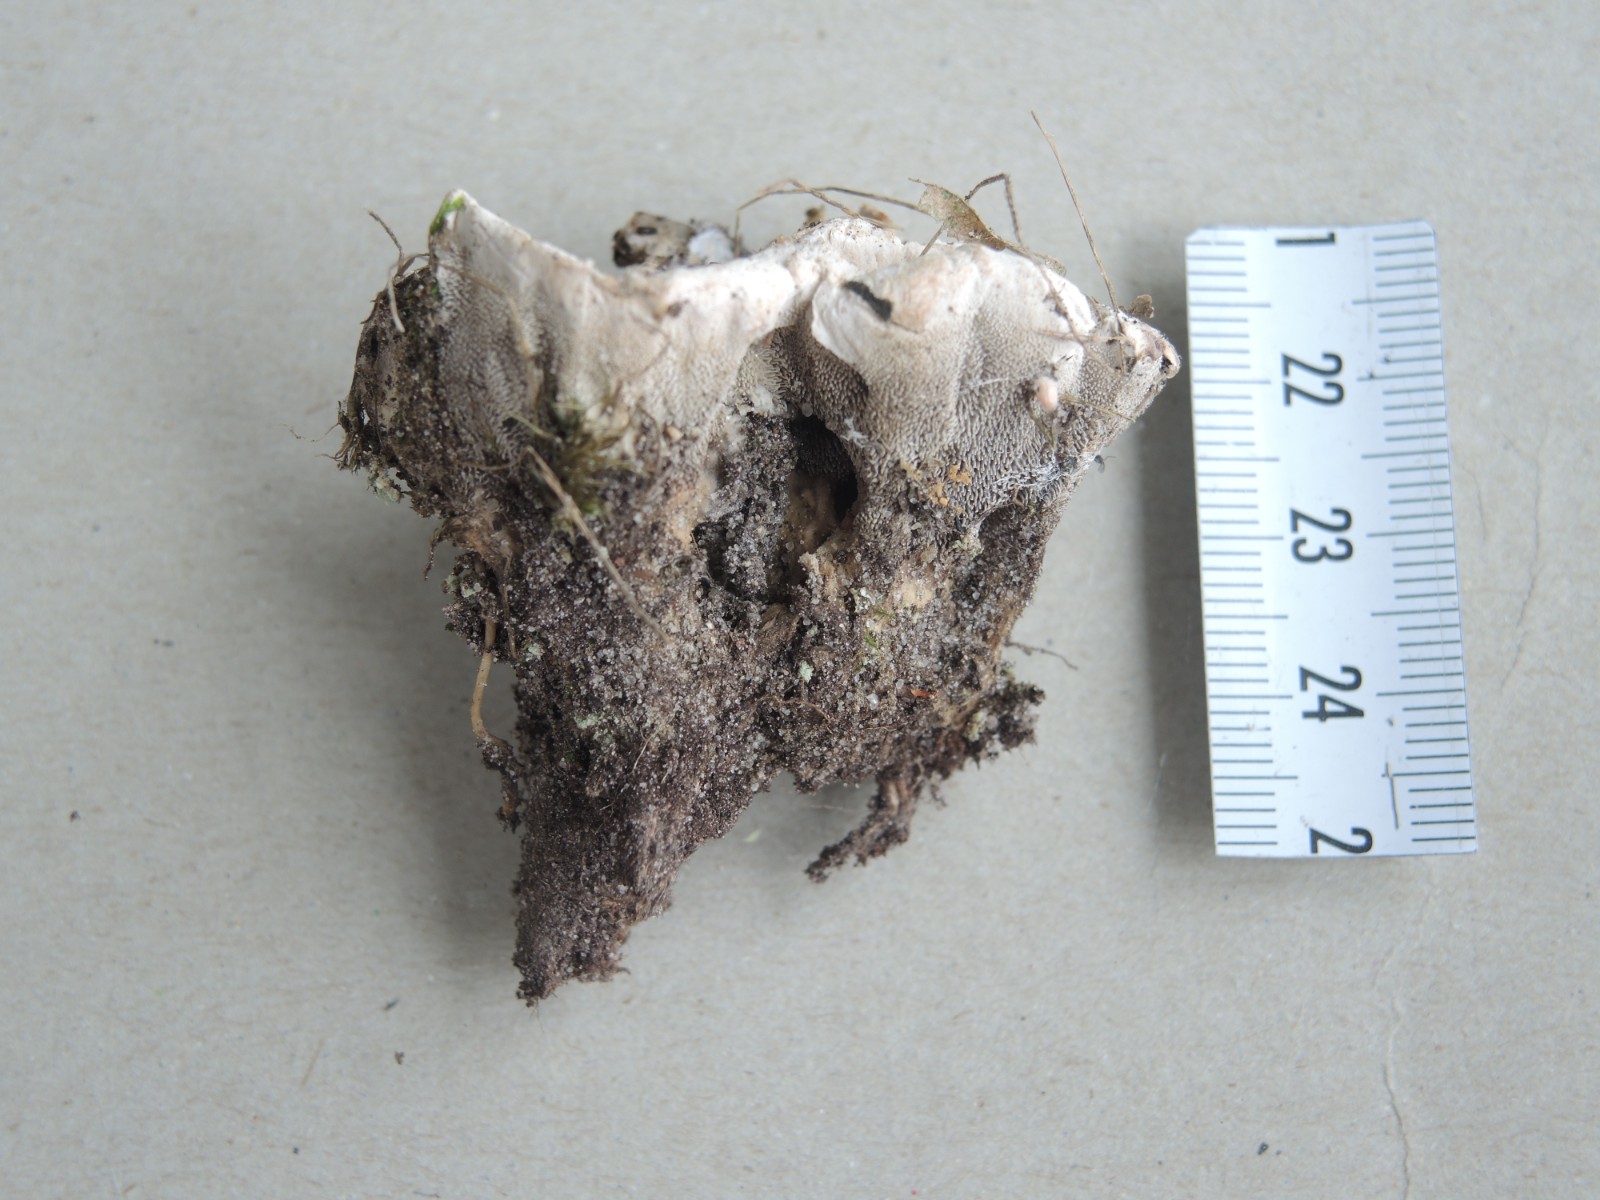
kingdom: Fungi
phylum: Basidiomycota
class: Agaricomycetes
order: Thelephorales
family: Thelephoraceae
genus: Phellodon
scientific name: Phellodon confluens
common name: pjaltet duftpigsvamp
